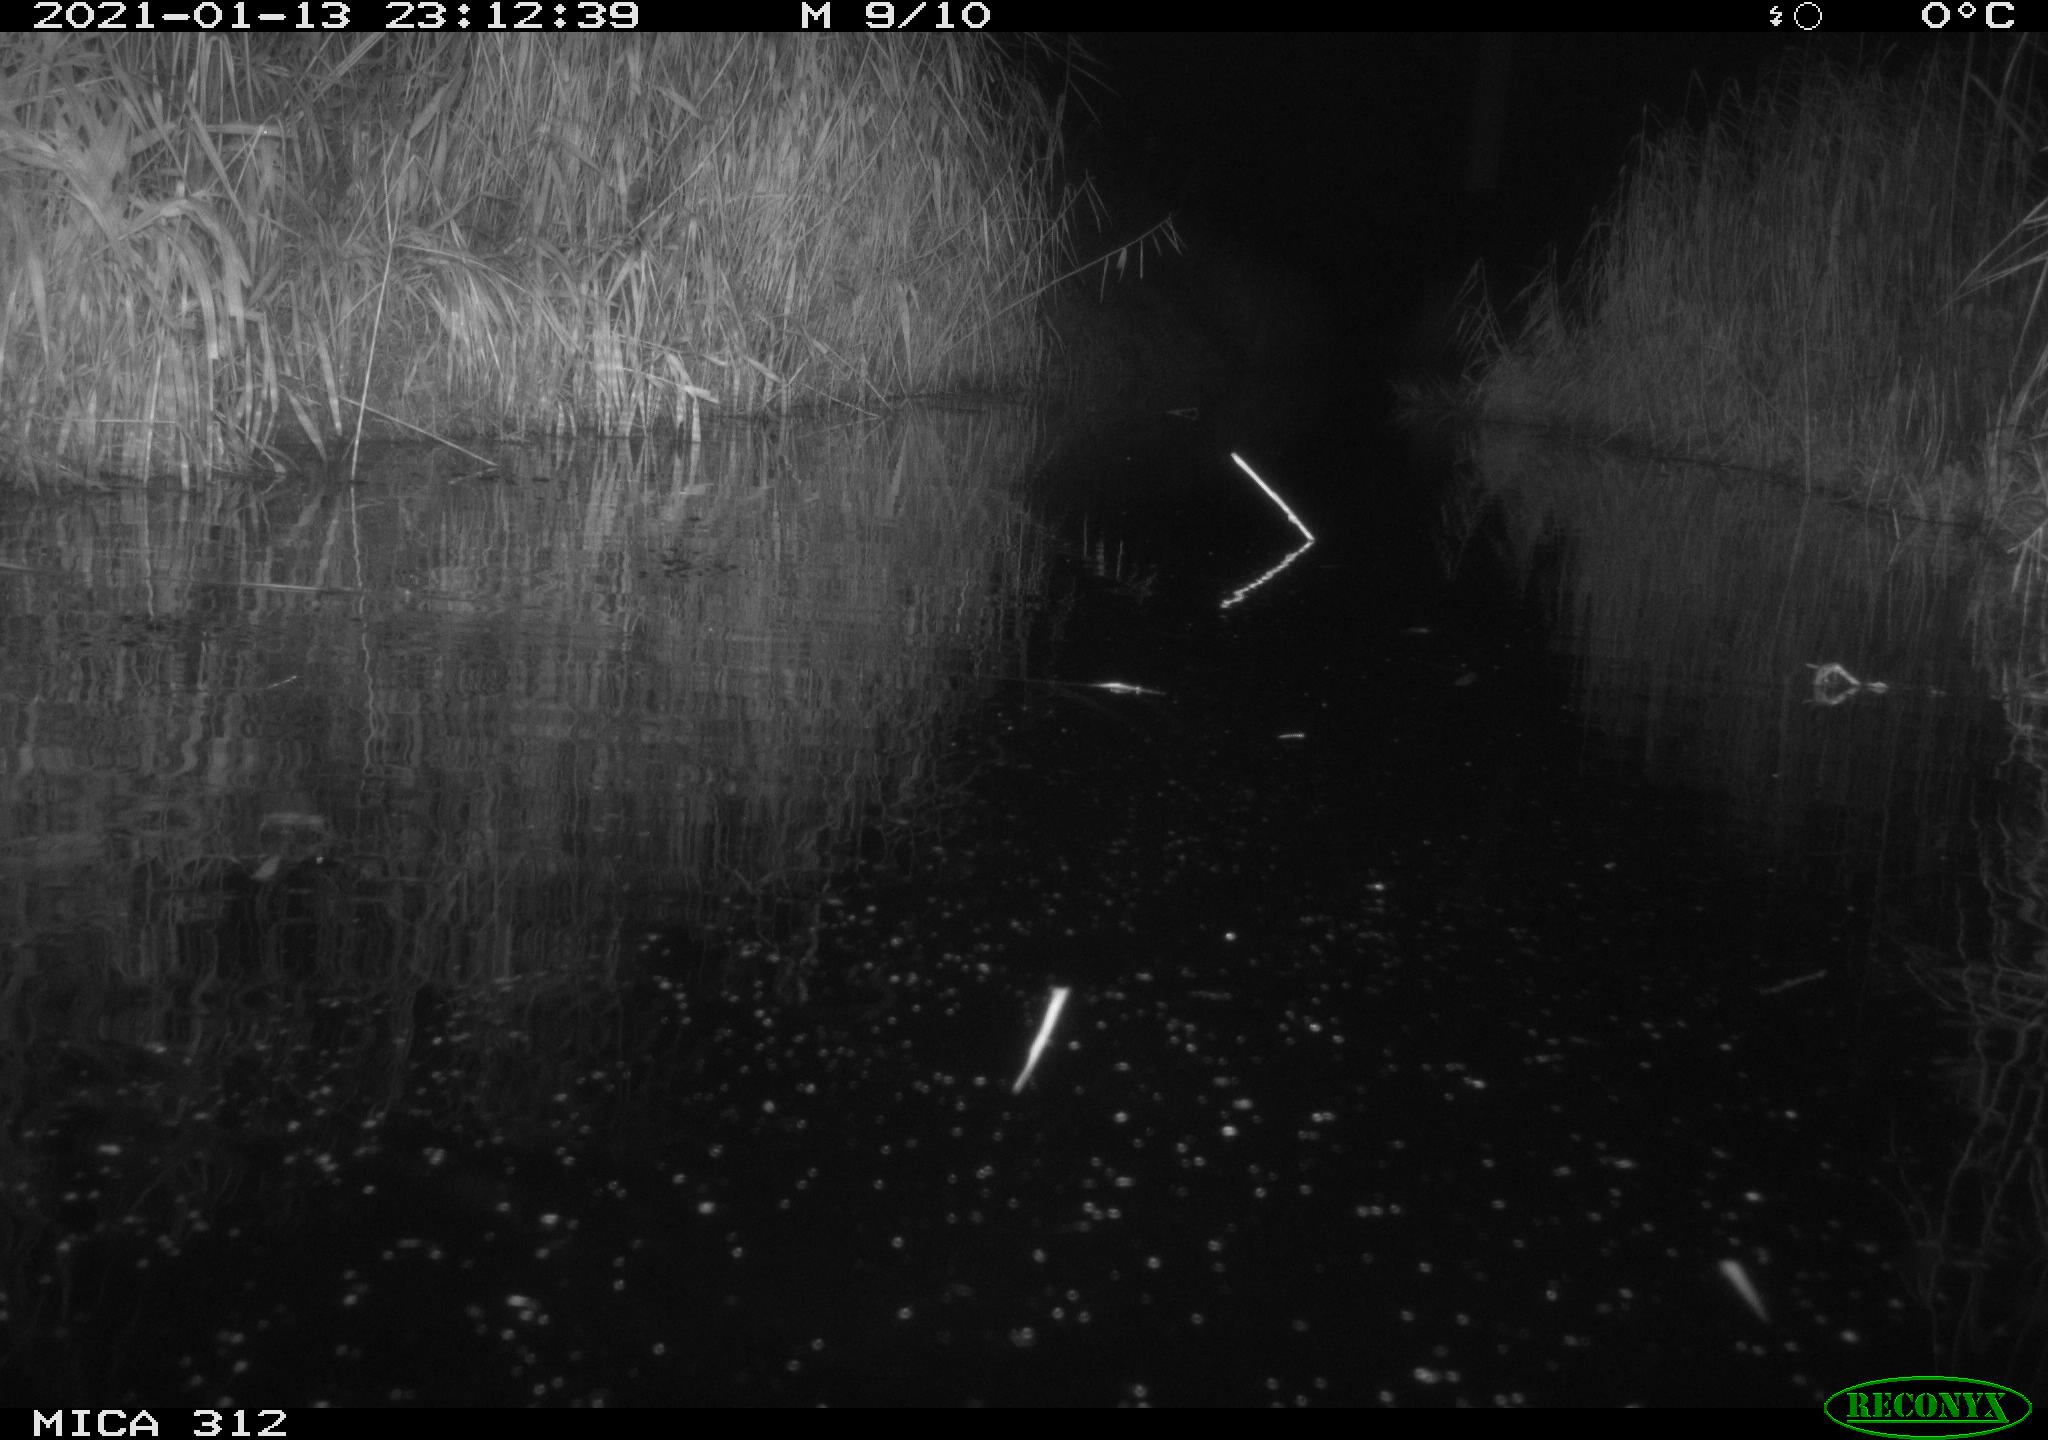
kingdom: Animalia
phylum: Chordata
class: Mammalia
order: Rodentia
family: Muridae
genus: Rattus
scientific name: Rattus norvegicus
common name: Brown rat
